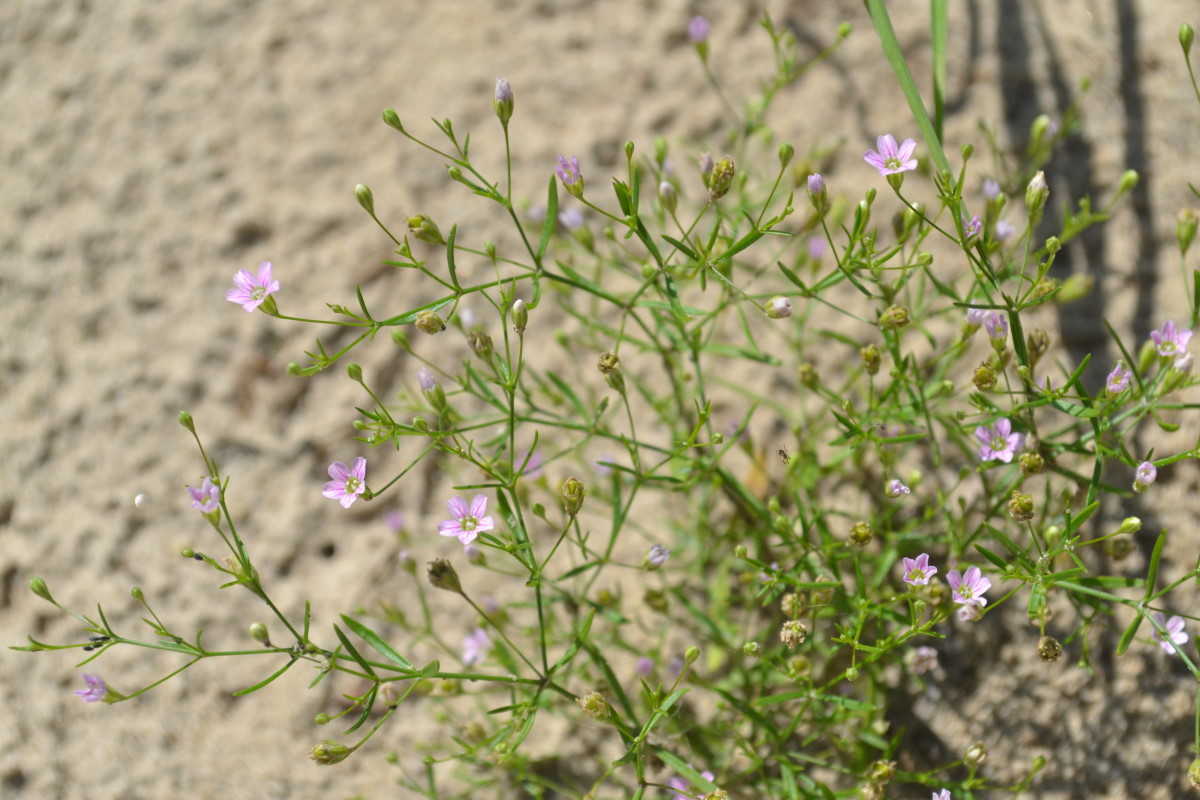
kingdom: Plantae
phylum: Tracheophyta
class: Magnoliopsida
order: Caryophyllales
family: Caryophyllaceae
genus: Psammophiliella
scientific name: Psammophiliella muralis
